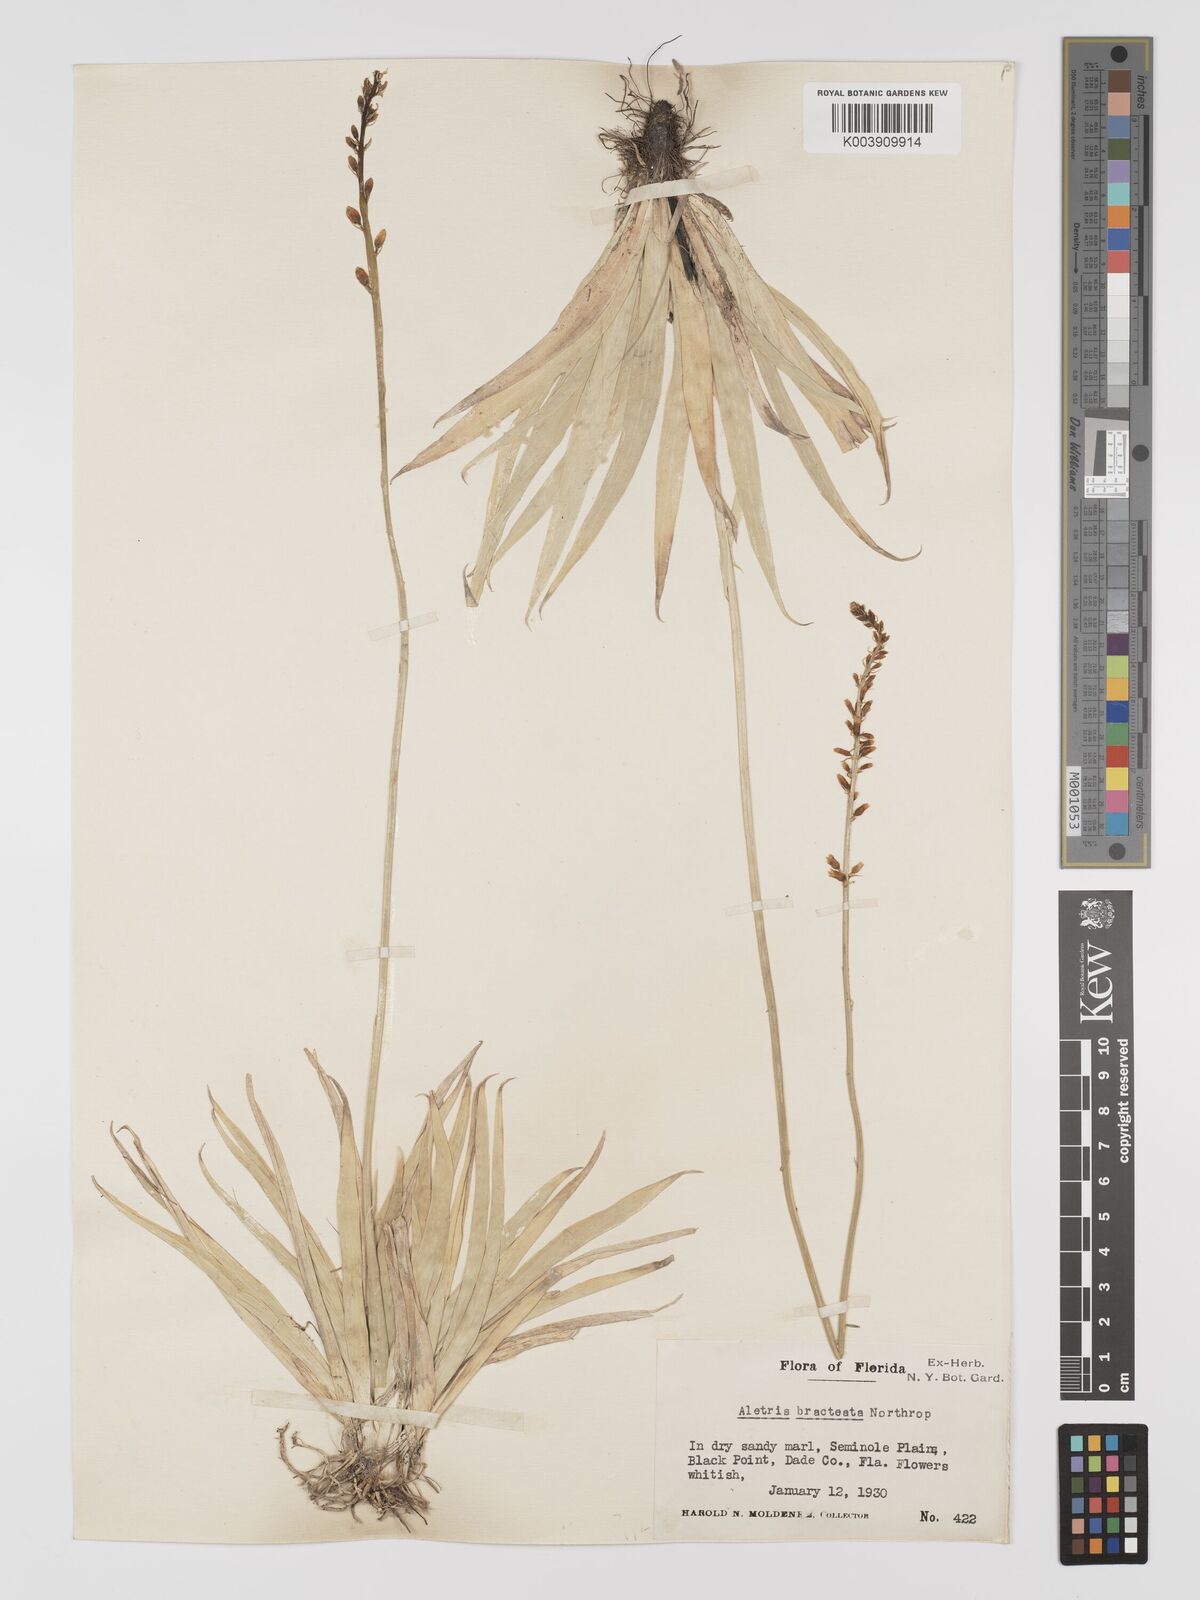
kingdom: Plantae
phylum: Tracheophyta
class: Liliopsida
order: Dioscoreales
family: Nartheciaceae
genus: Aletris
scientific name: Aletris bracteata
